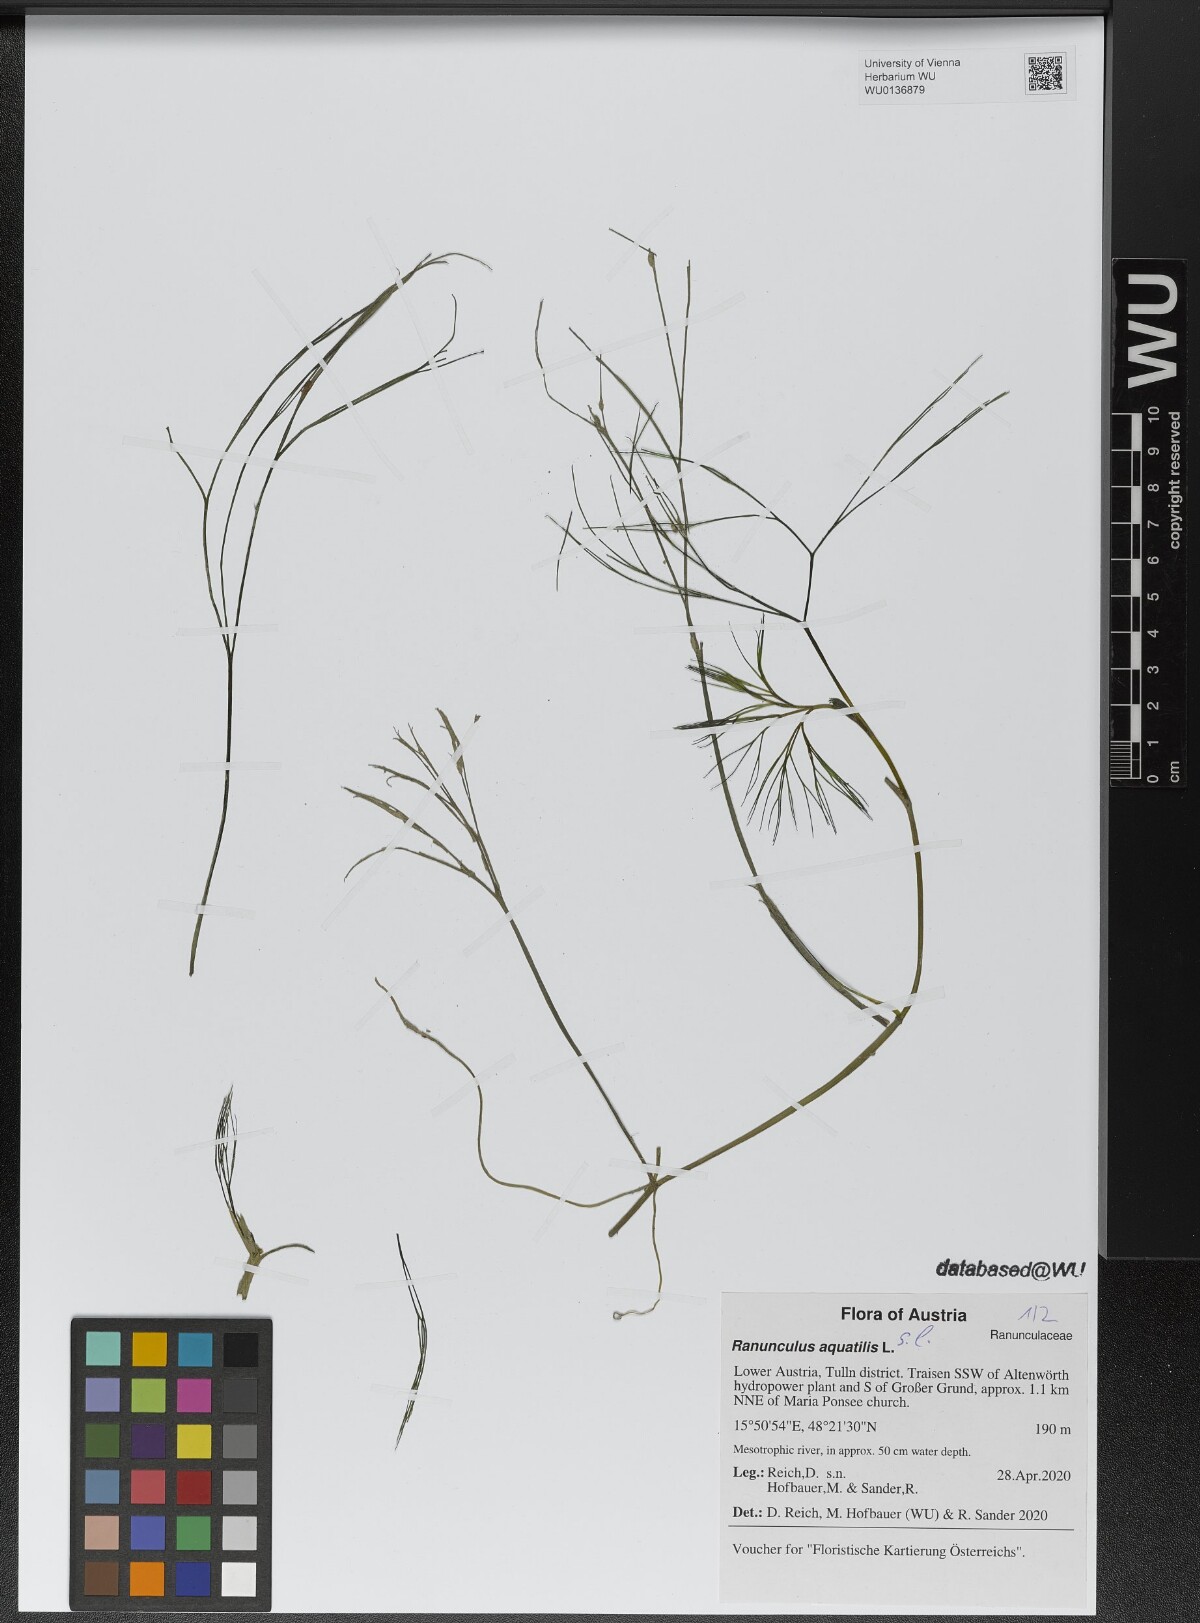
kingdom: Plantae
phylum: Tracheophyta
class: Magnoliopsida
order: Ranunculales
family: Ranunculaceae
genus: Ranunculus
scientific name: Ranunculus aquatilis
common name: Common water-crowfoot
